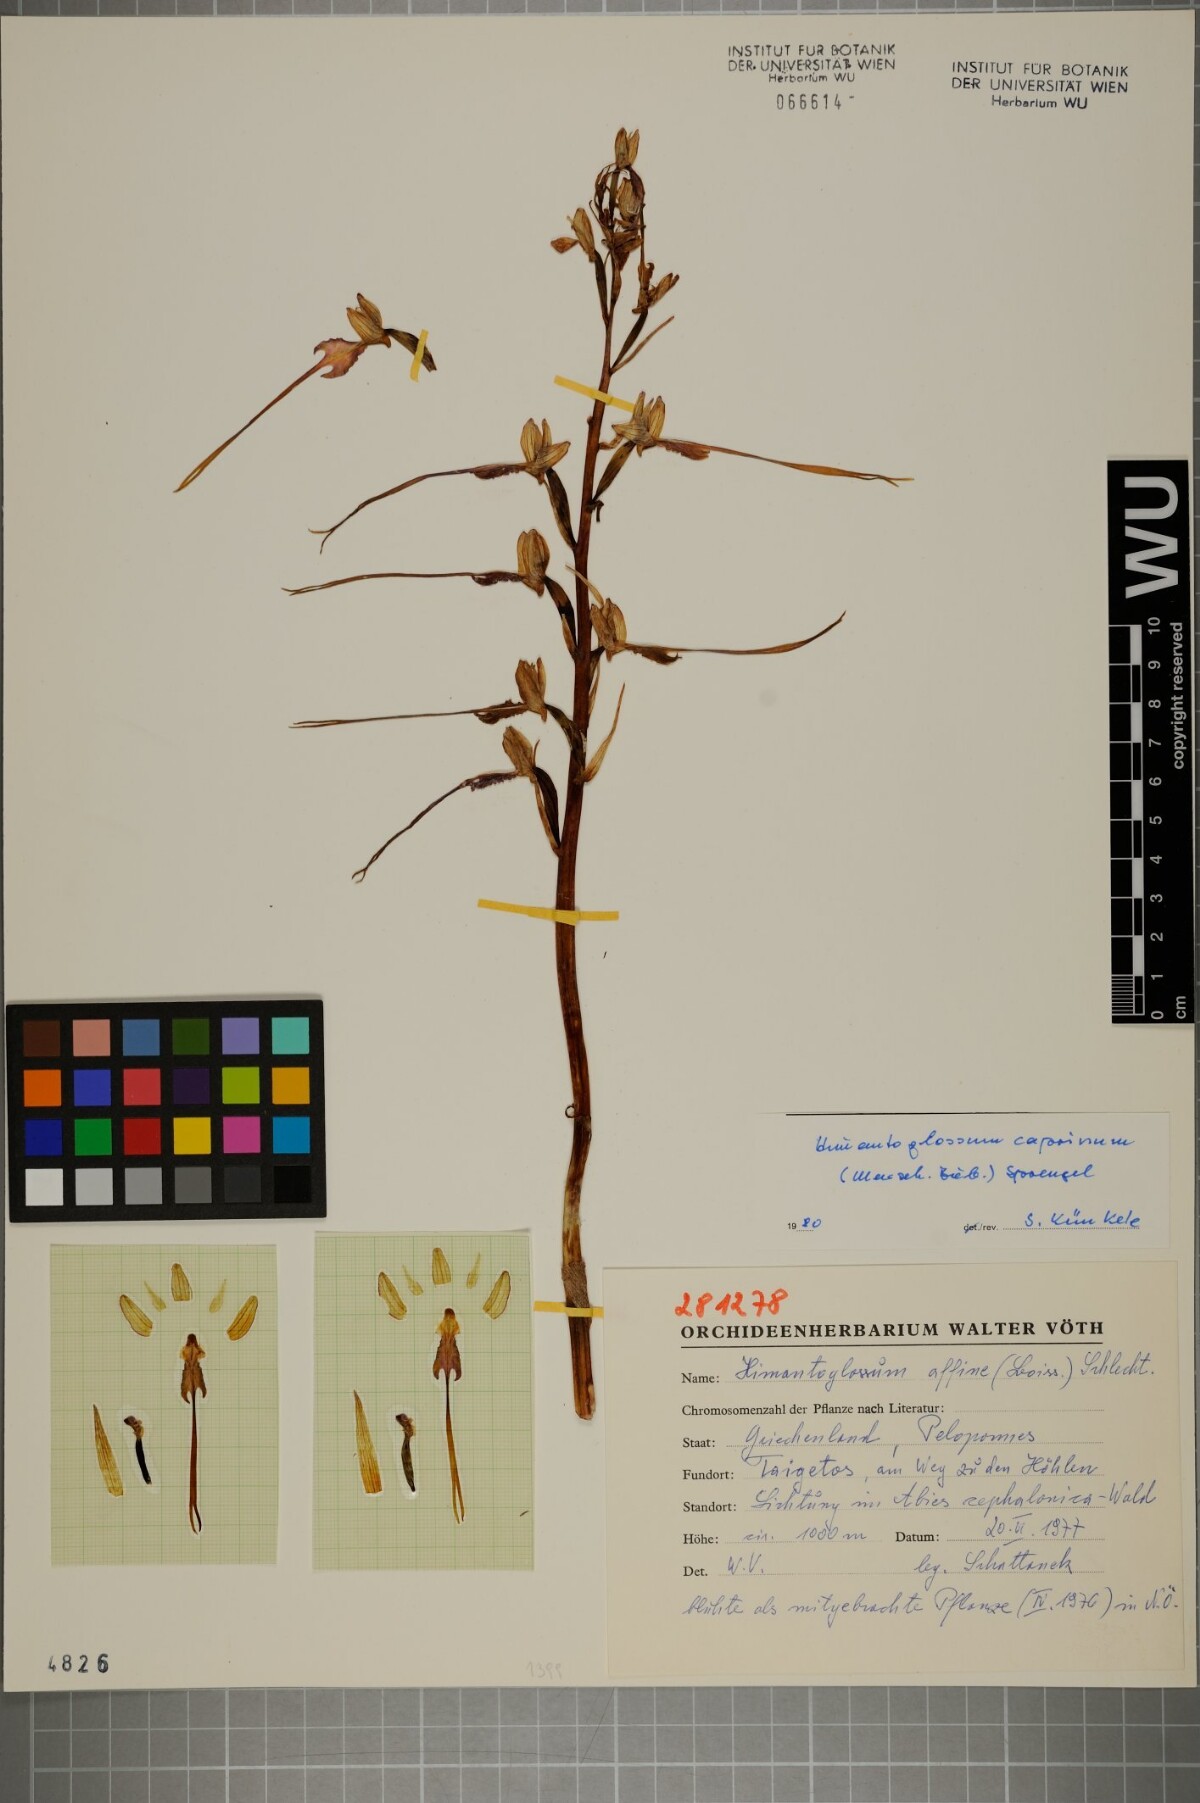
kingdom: Plantae
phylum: Tracheophyta
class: Liliopsida
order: Asparagales
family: Orchidaceae
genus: Himantoglossum
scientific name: Himantoglossum caprinum
